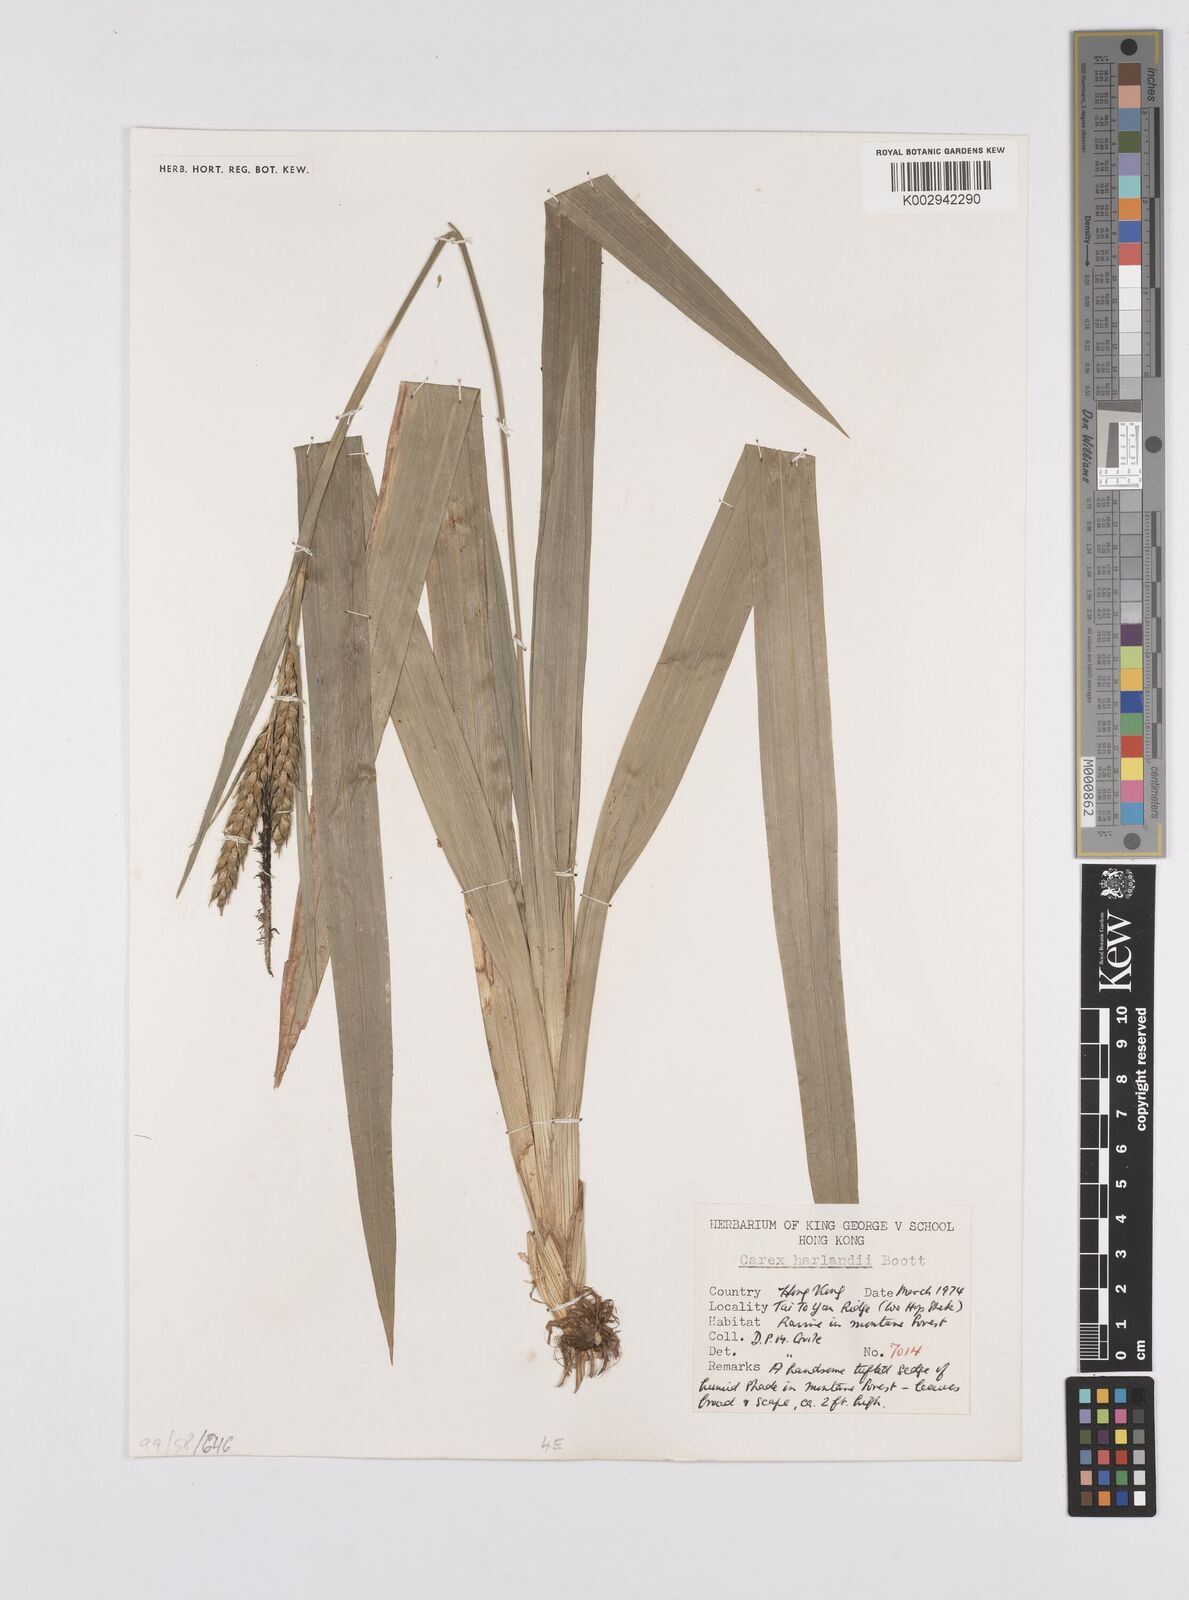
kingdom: Plantae
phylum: Tracheophyta
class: Liliopsida
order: Poales
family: Cyperaceae
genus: Carex
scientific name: Carex harlandii
